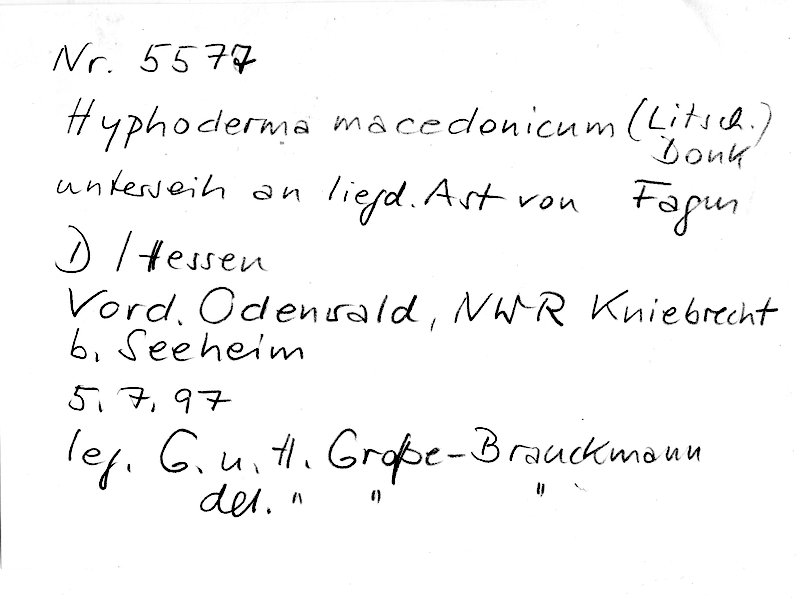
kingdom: Plantae
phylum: Tracheophyta
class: Magnoliopsida
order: Fagales
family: Fagaceae
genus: Fagus
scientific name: Fagus sylvatica
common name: Beech
